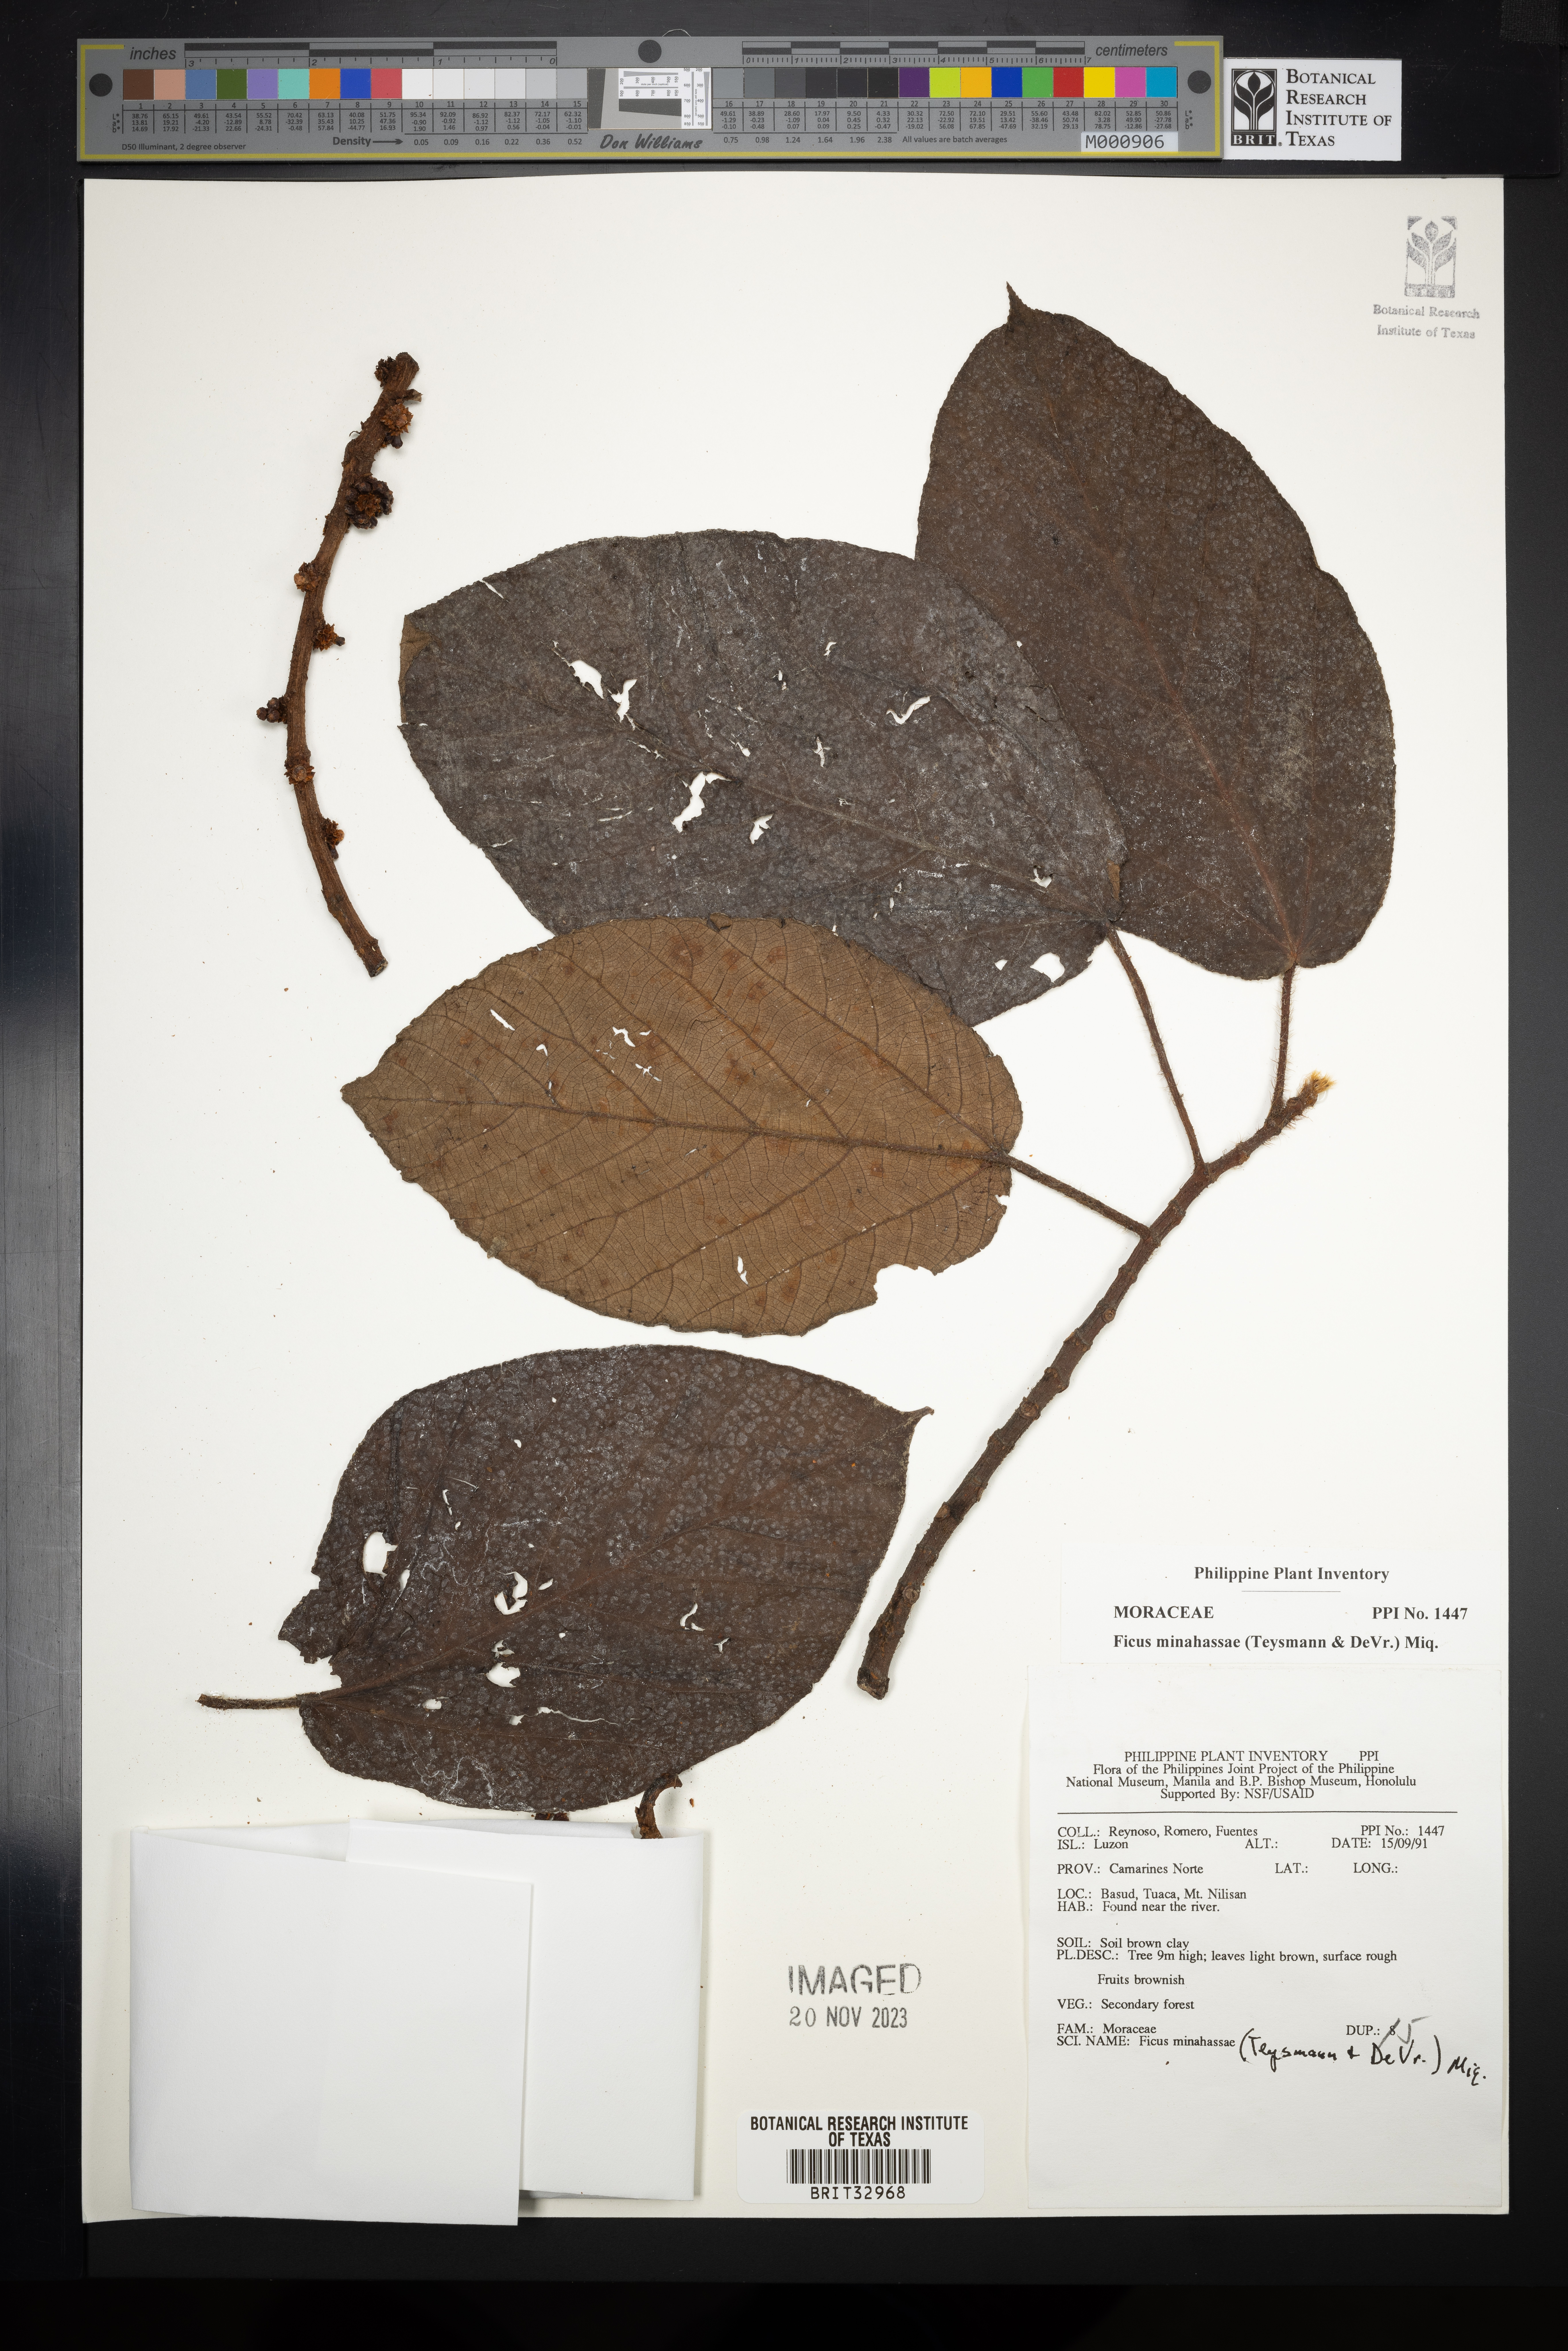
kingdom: Plantae
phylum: Tracheophyta
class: Magnoliopsida
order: Rosales
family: Moraceae
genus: Ficus
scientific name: Ficus minahassae
